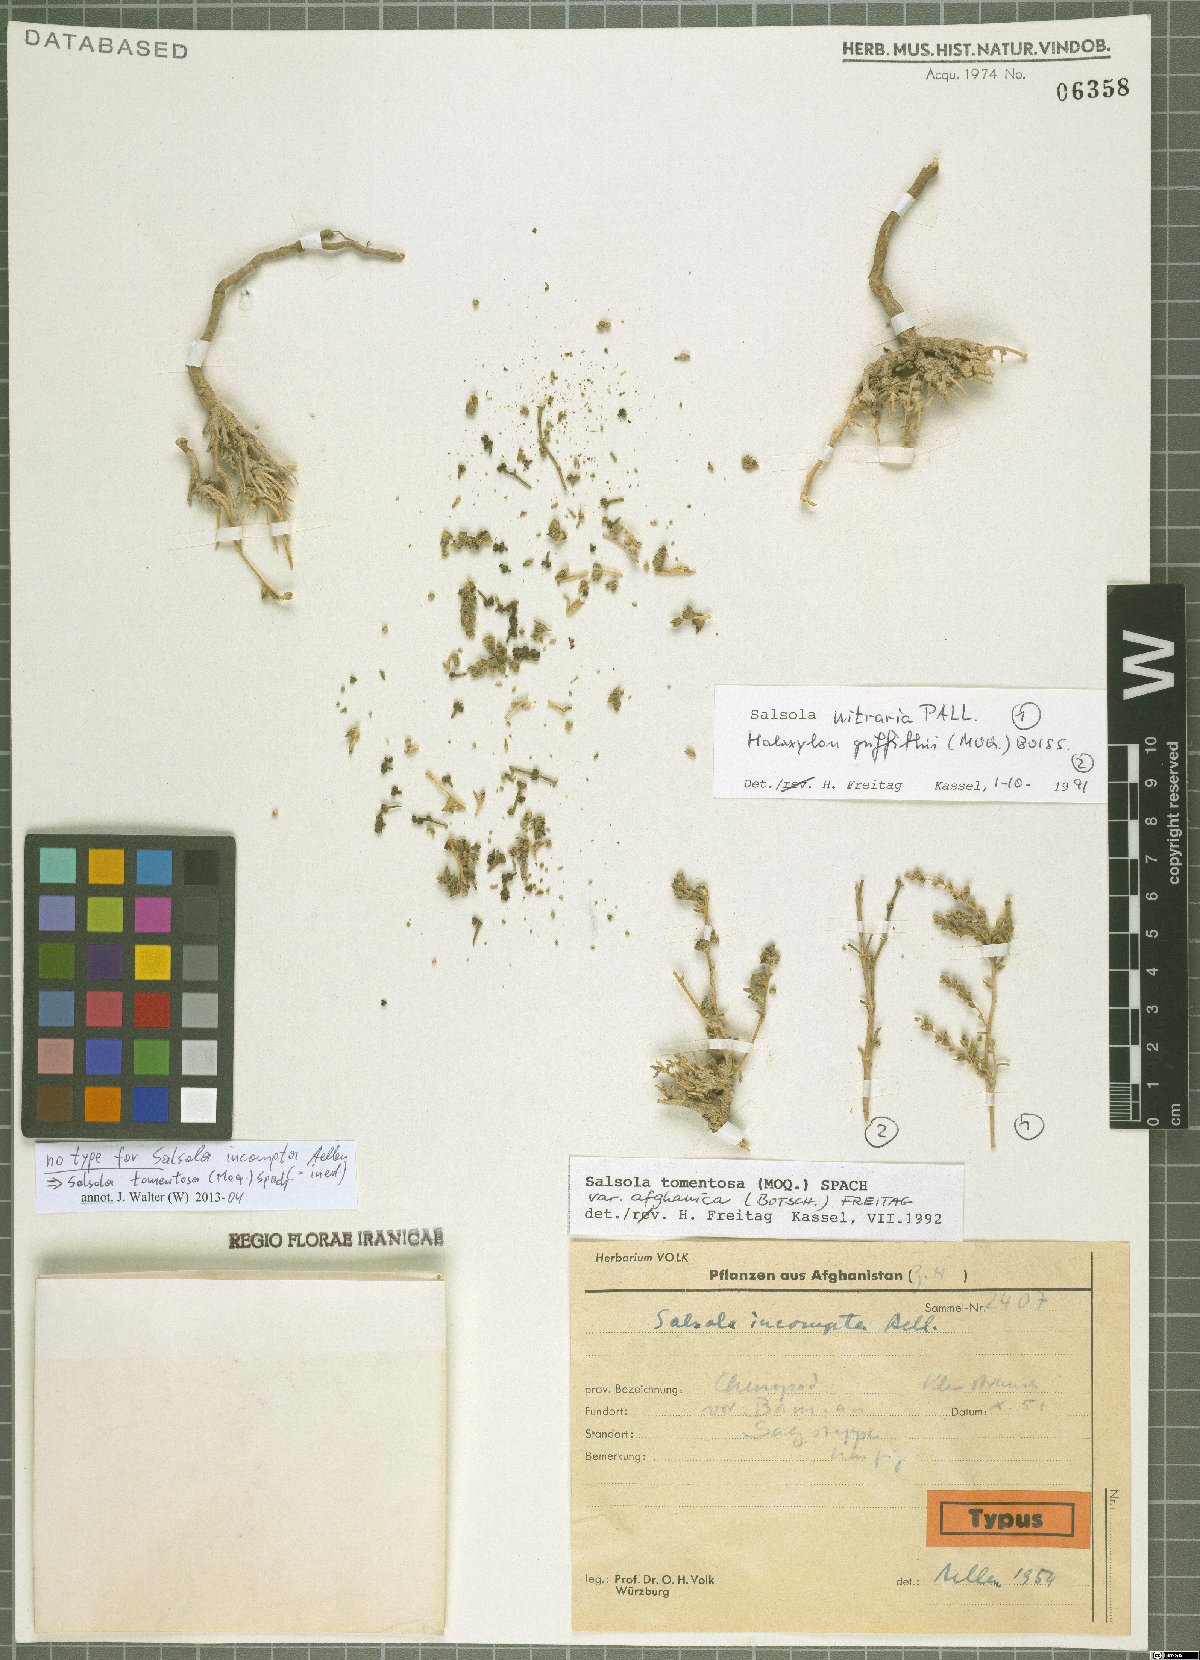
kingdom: Plantae
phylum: Tracheophyta
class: Magnoliopsida
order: Caryophyllales
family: Amaranthaceae
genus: Kaviria
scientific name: Kaviria tomentosa
